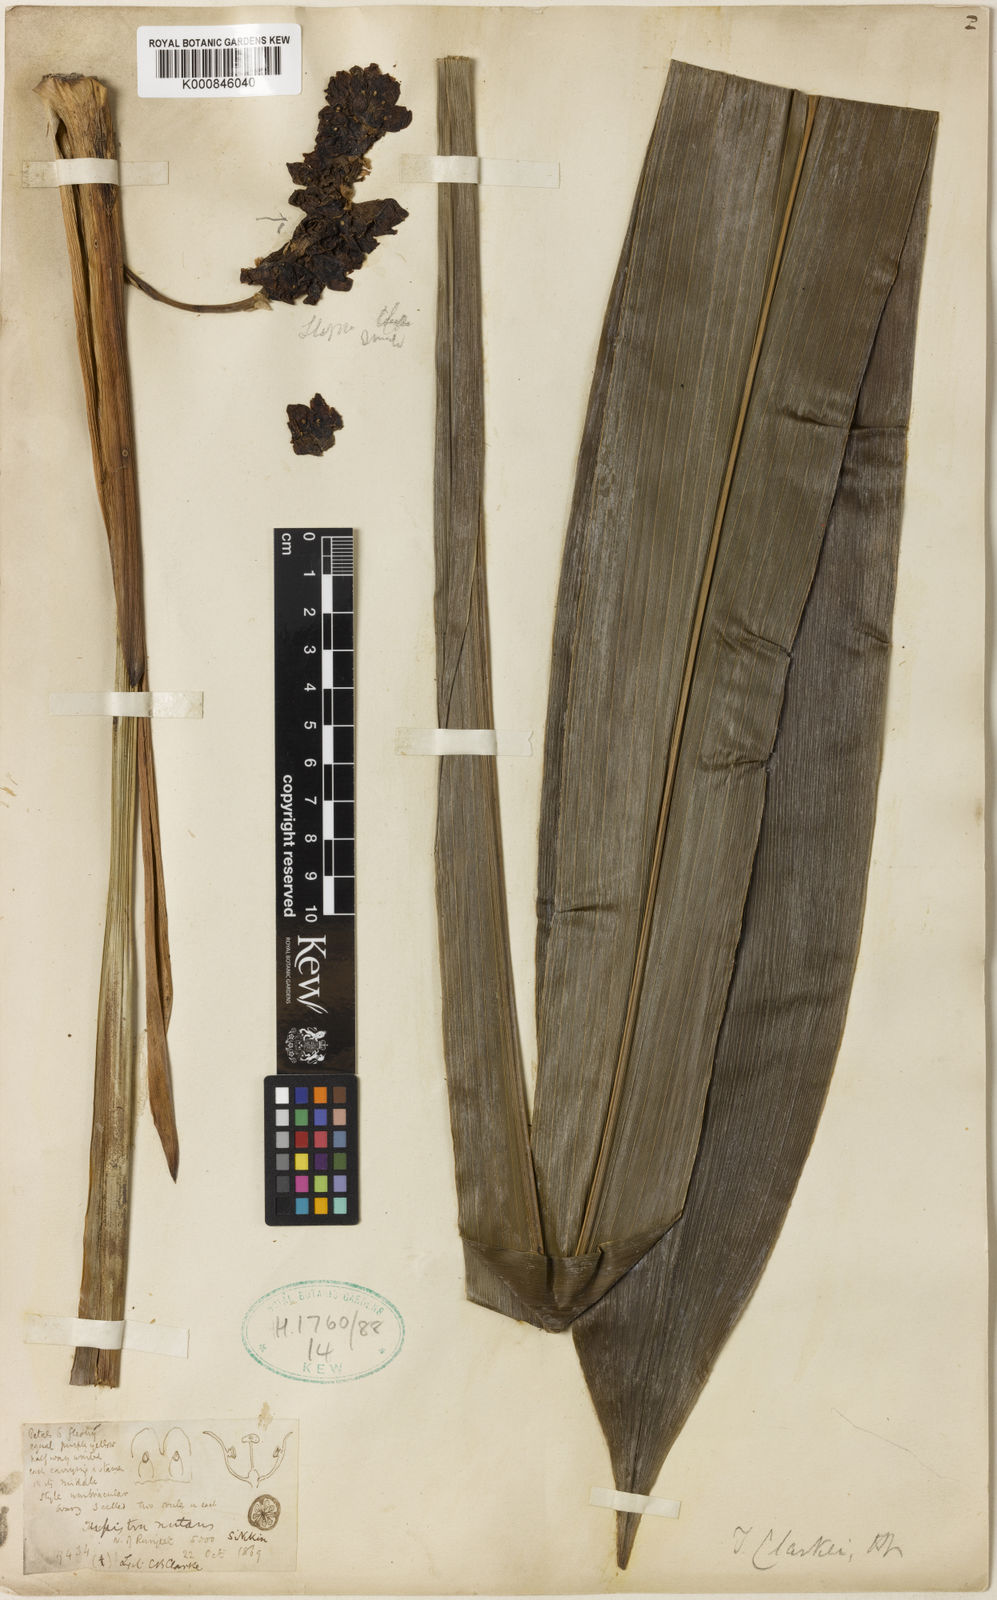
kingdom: Plantae
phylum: Tracheophyta
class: Liliopsida
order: Asparagales
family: Asparagaceae
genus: Tupistra
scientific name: Tupistra nutans
